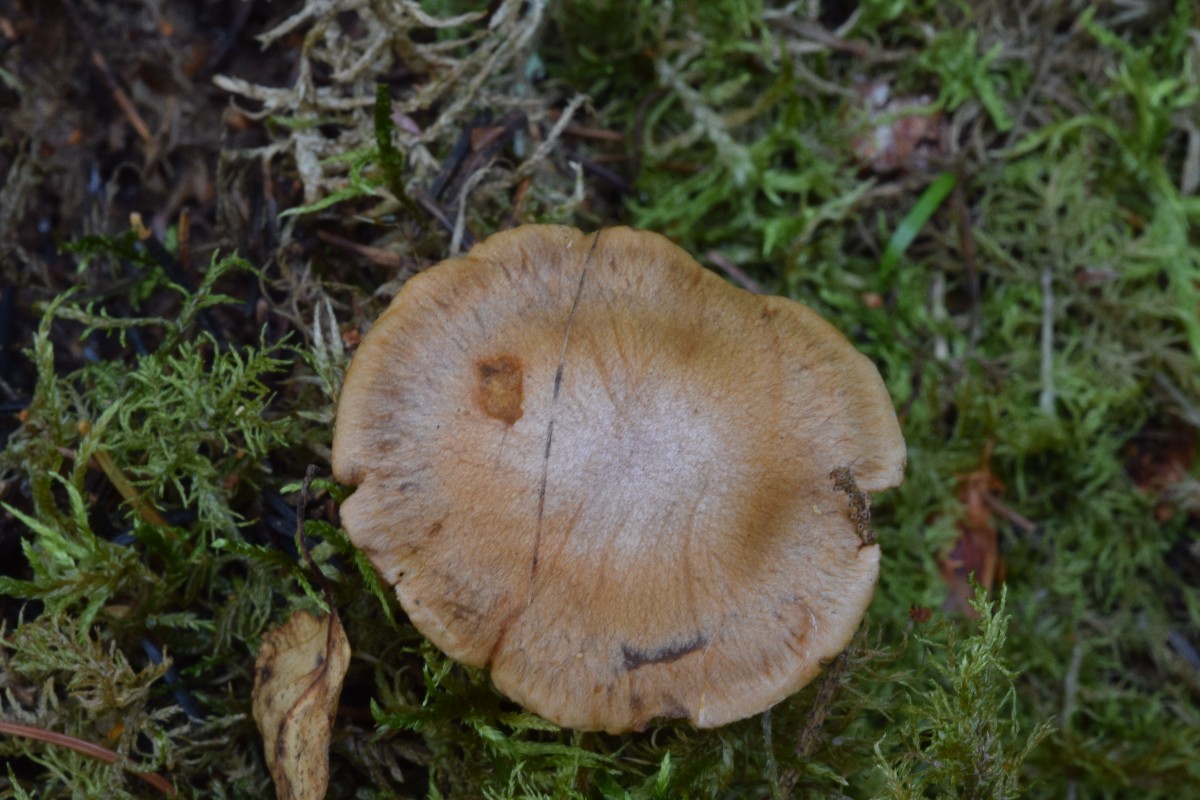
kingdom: Fungi
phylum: Basidiomycota
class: Agaricomycetes
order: Agaricales
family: Cortinariaceae
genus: Cortinarius
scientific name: Cortinarius
